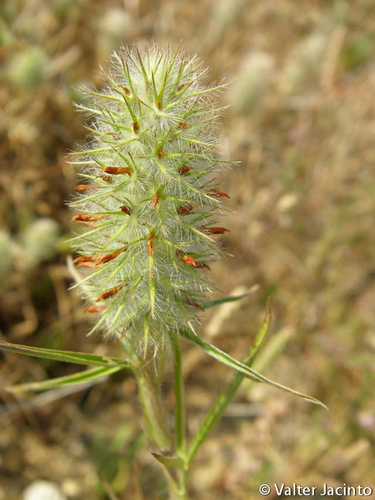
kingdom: Plantae
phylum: Tracheophyta
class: Magnoliopsida
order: Fabales
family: Fabaceae
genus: Trifolium
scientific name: Trifolium angustifolium
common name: Narrow clover
